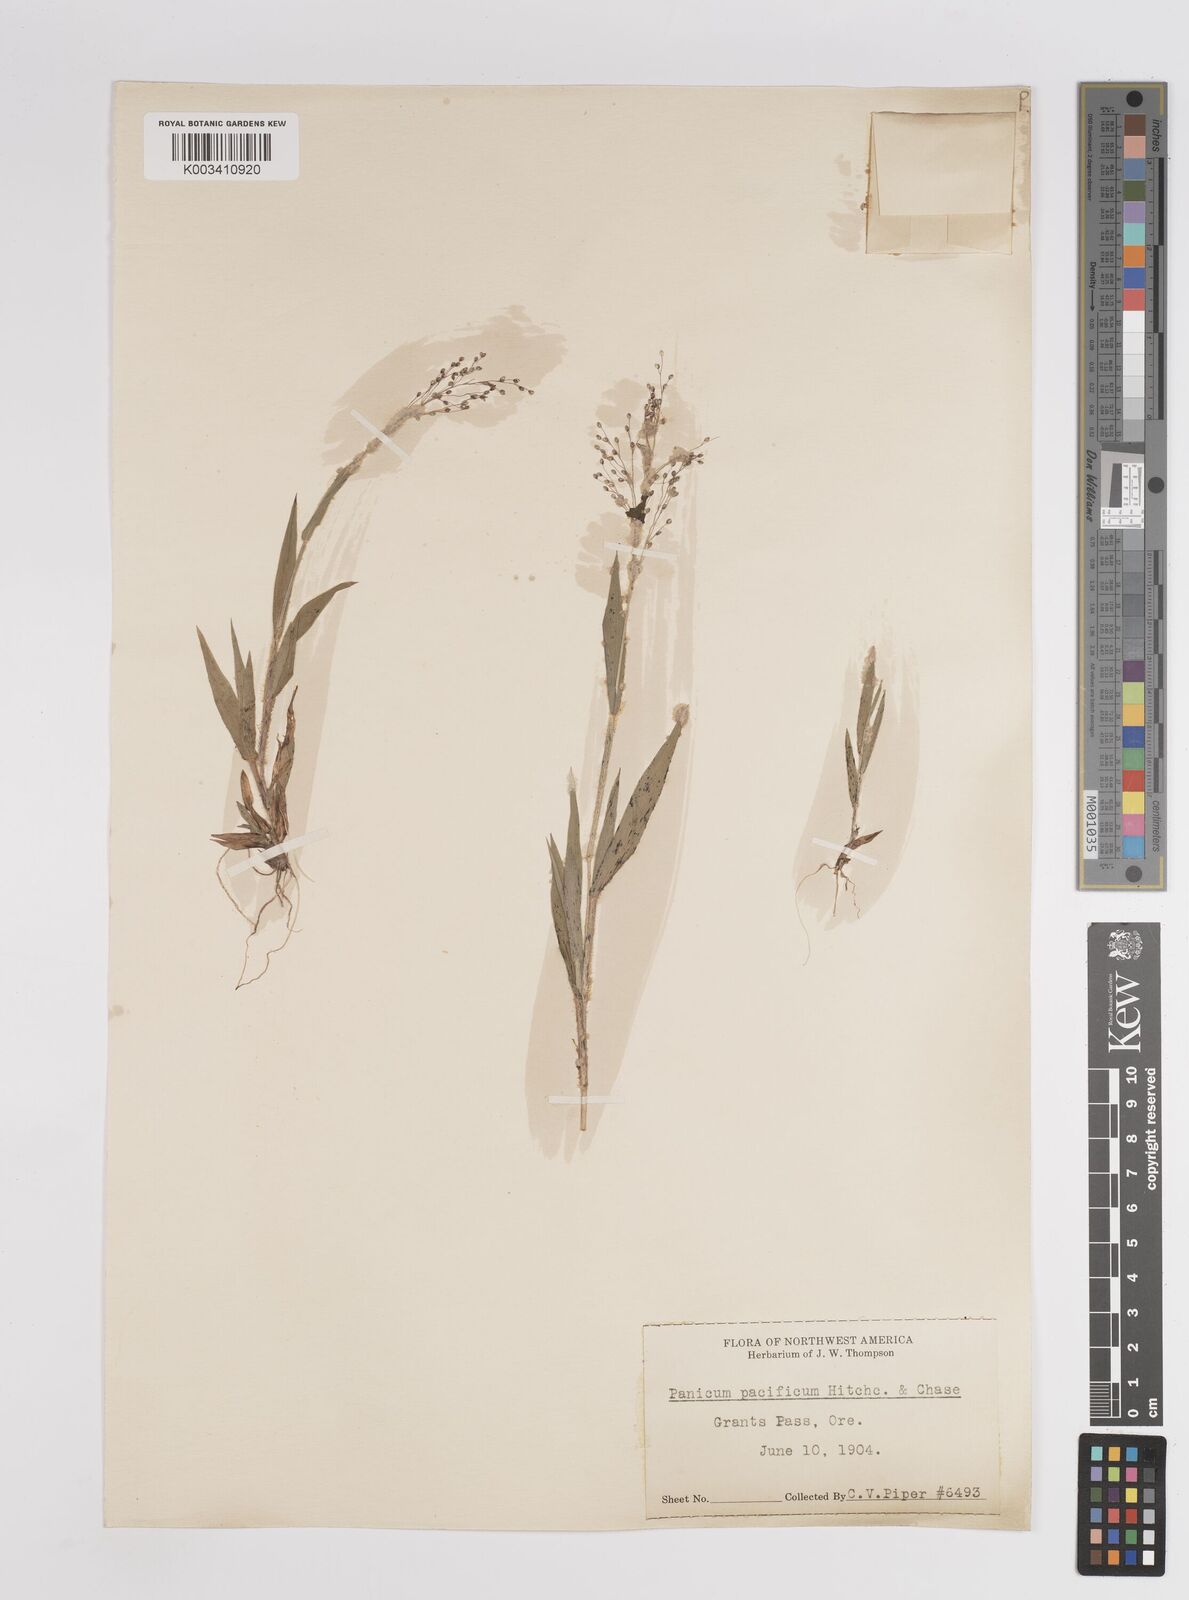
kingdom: Plantae
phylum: Tracheophyta
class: Liliopsida
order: Poales
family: Poaceae
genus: Dichanthelium
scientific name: Dichanthelium implicatum
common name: Slender-stemmed panicgrass
